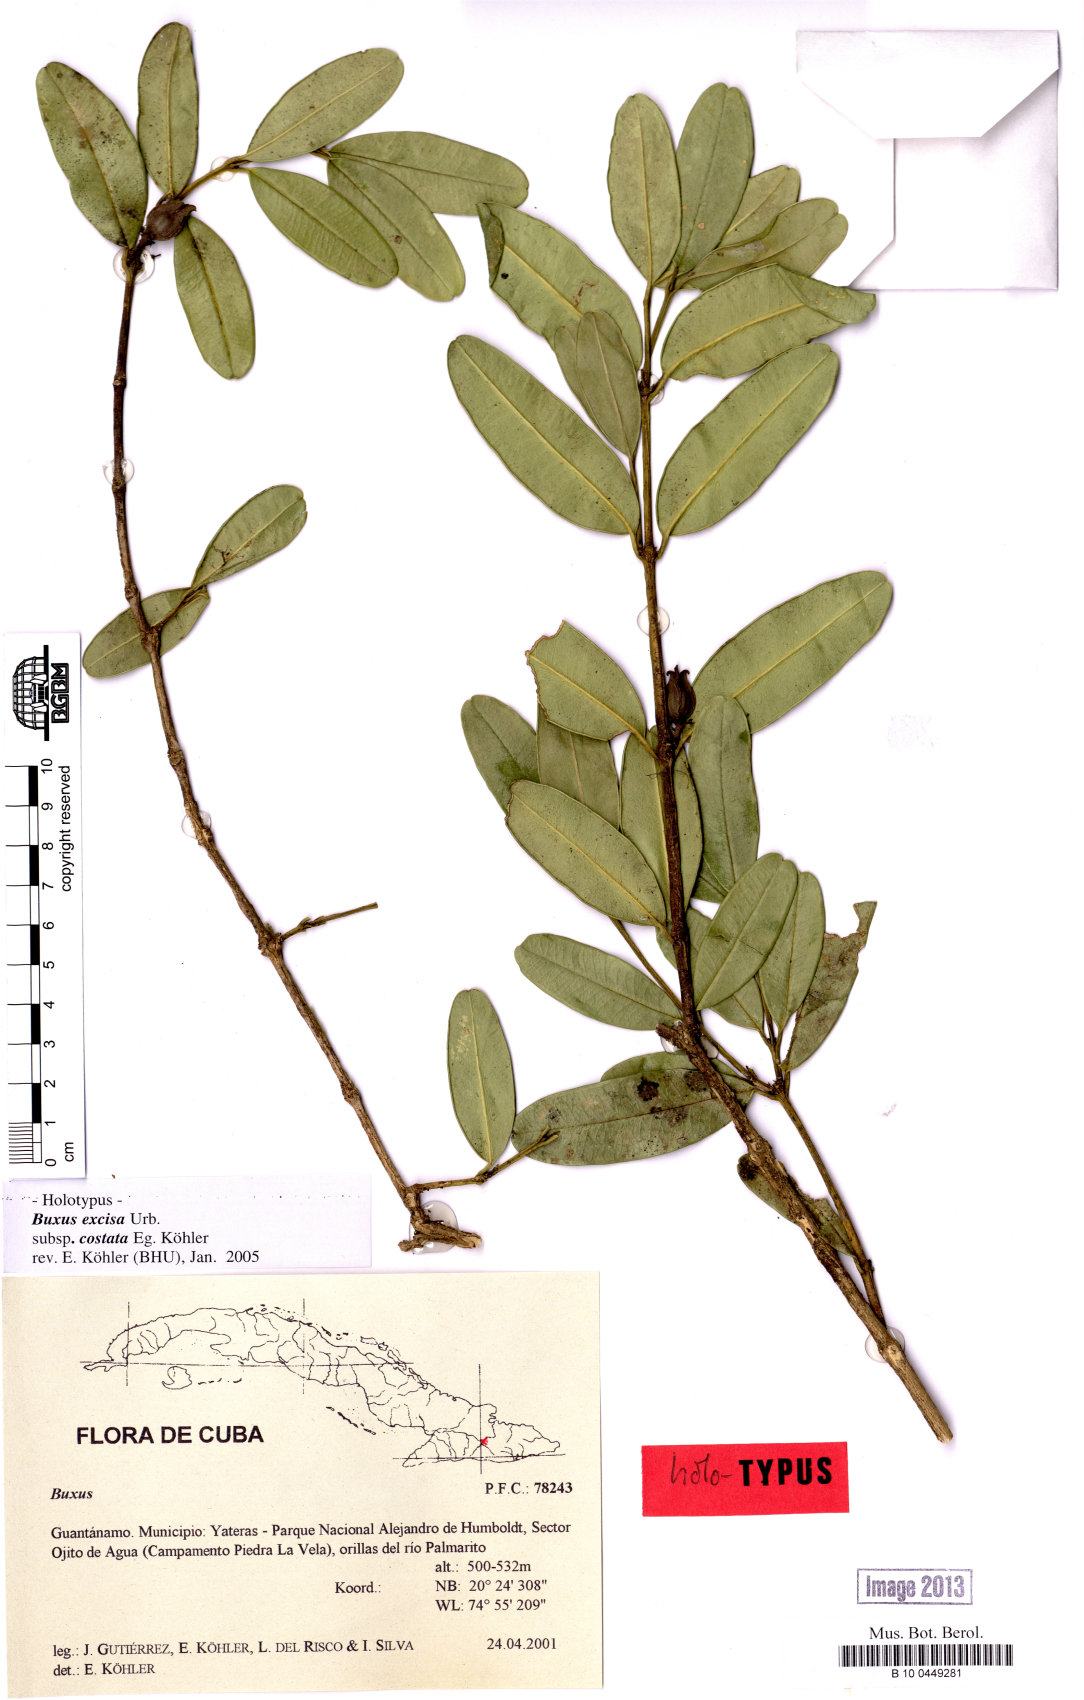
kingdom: Plantae
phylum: Tracheophyta
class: Magnoliopsida
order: Buxales
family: Buxaceae
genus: Buxus
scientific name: Buxus excisa
